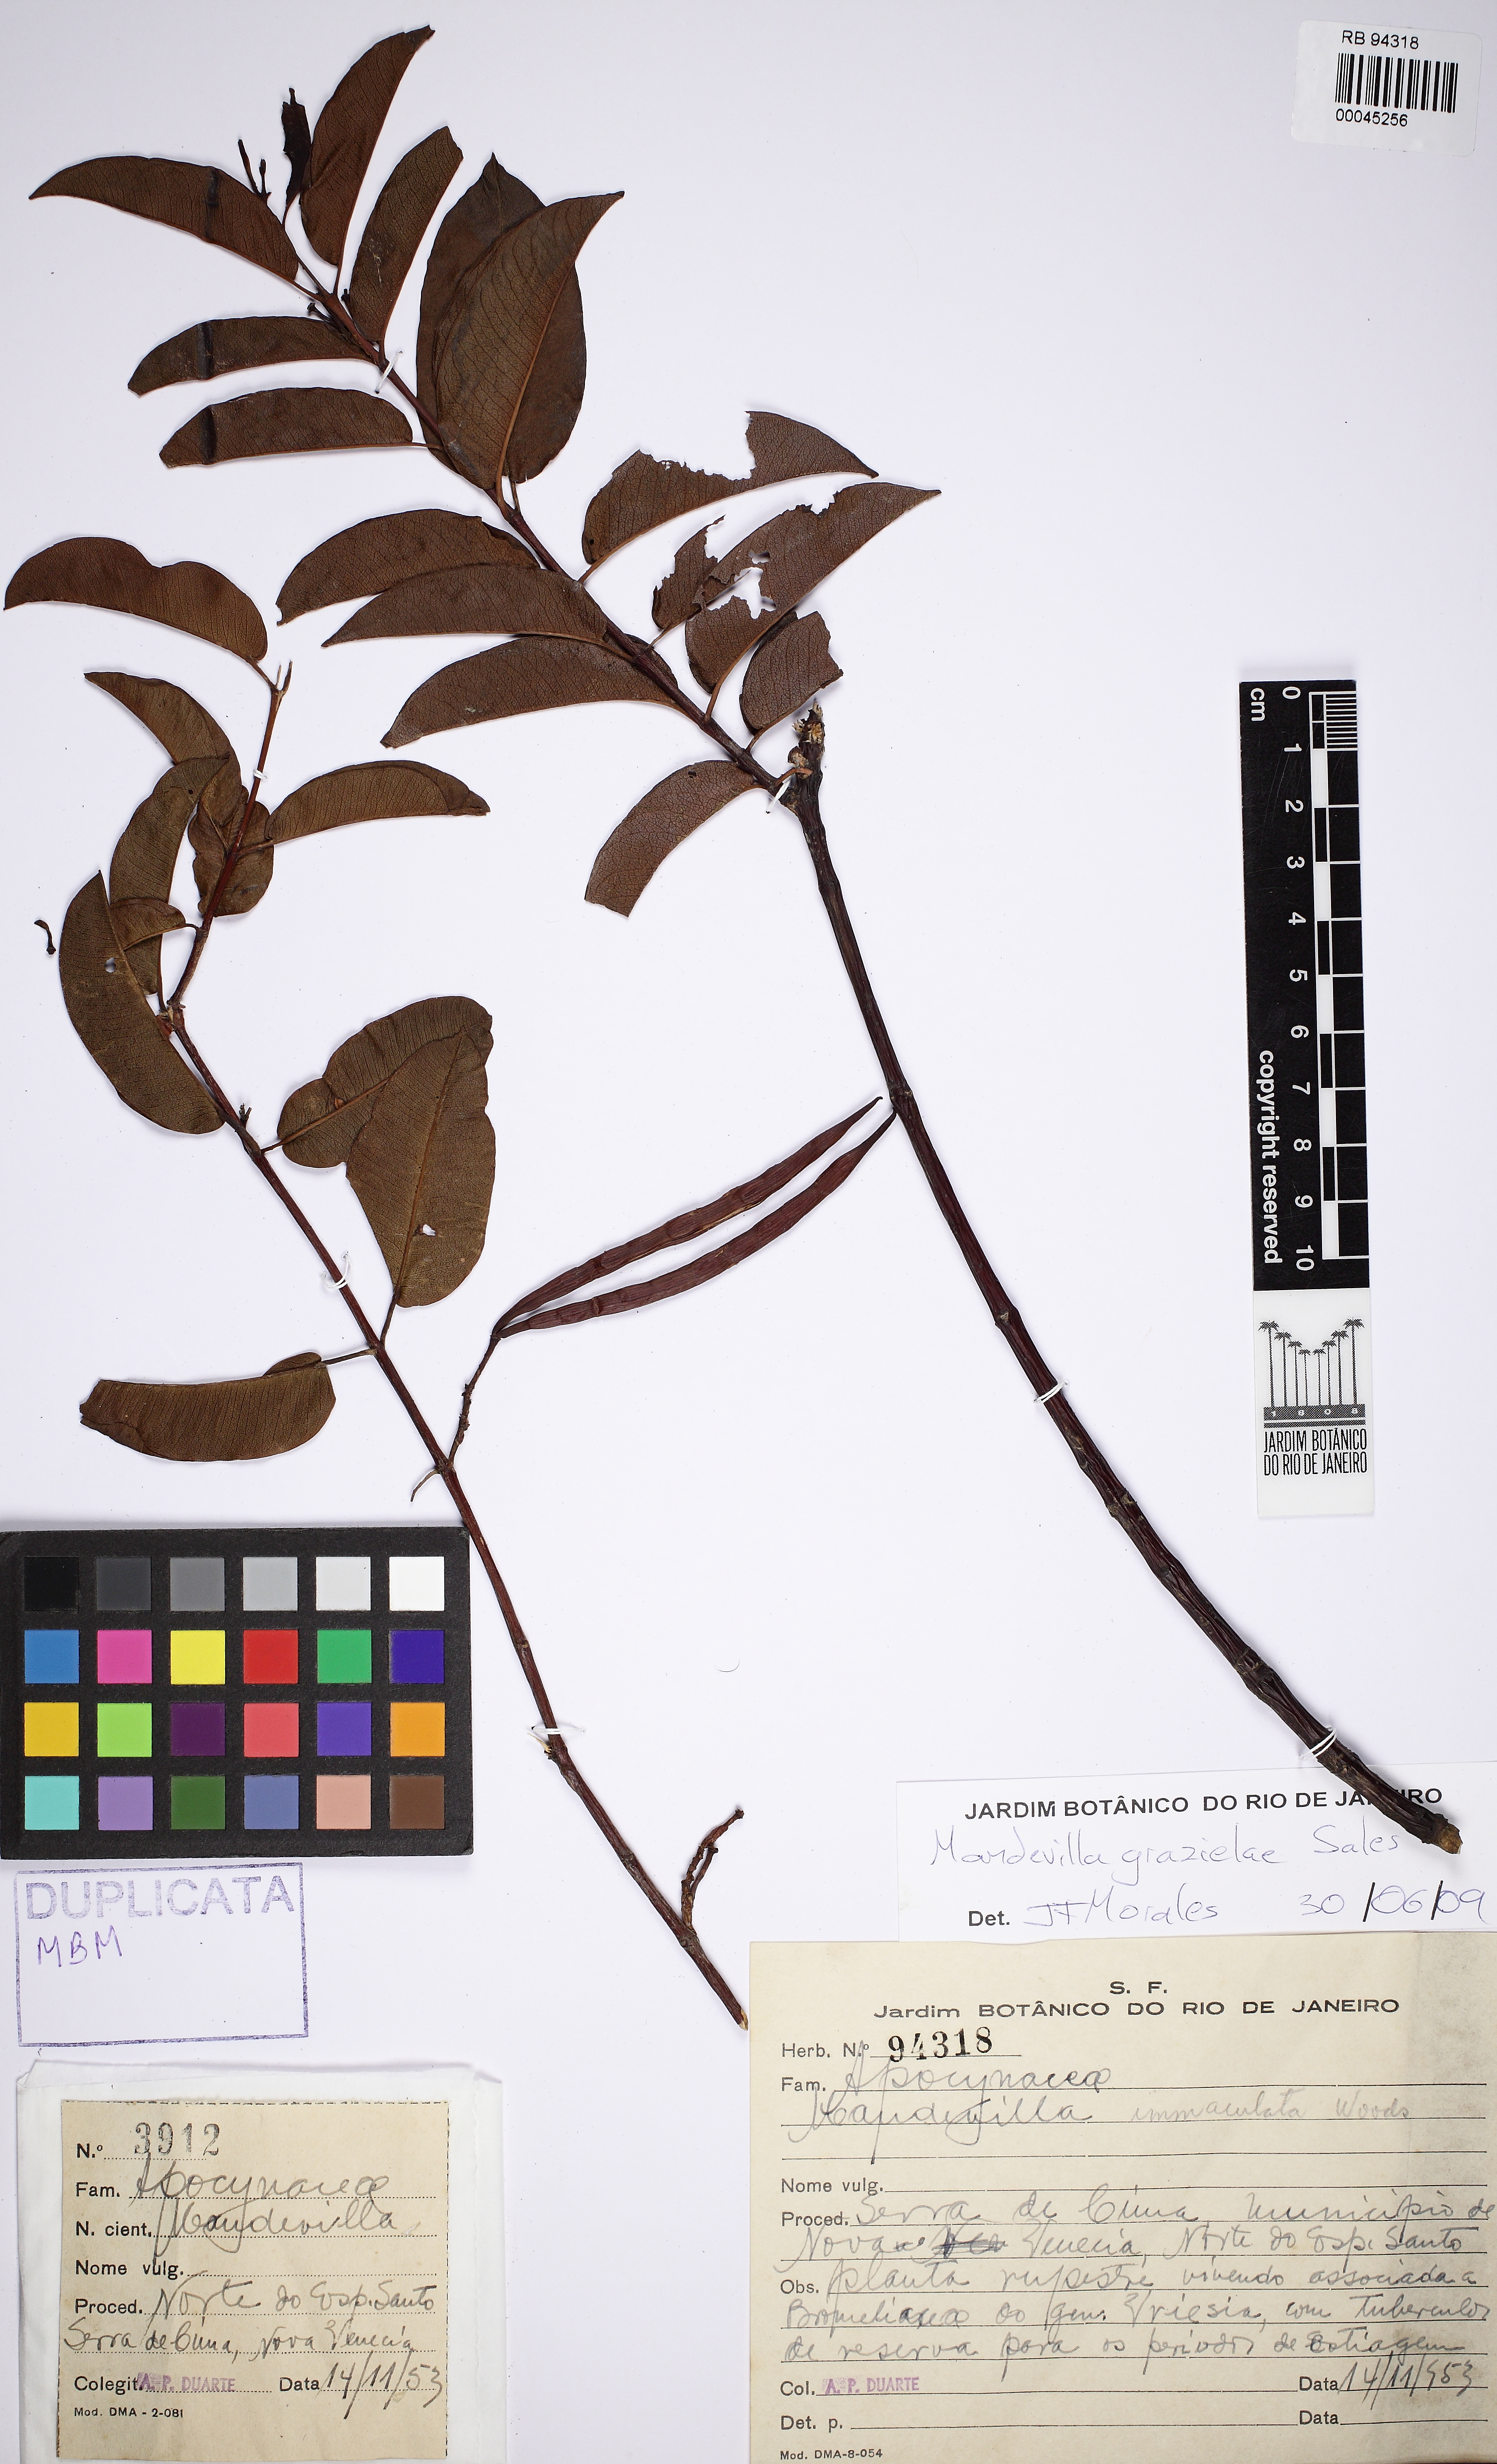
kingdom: Plantae
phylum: Tracheophyta
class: Magnoliopsida
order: Gentianales
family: Apocynaceae
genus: Mandevilla
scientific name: Mandevilla grazielae
